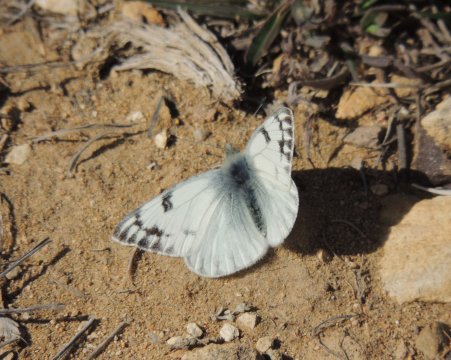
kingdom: Animalia
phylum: Arthropoda
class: Insecta
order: Lepidoptera
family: Pieridae
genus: Pontia
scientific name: Pontia occidentalis
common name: Western White
